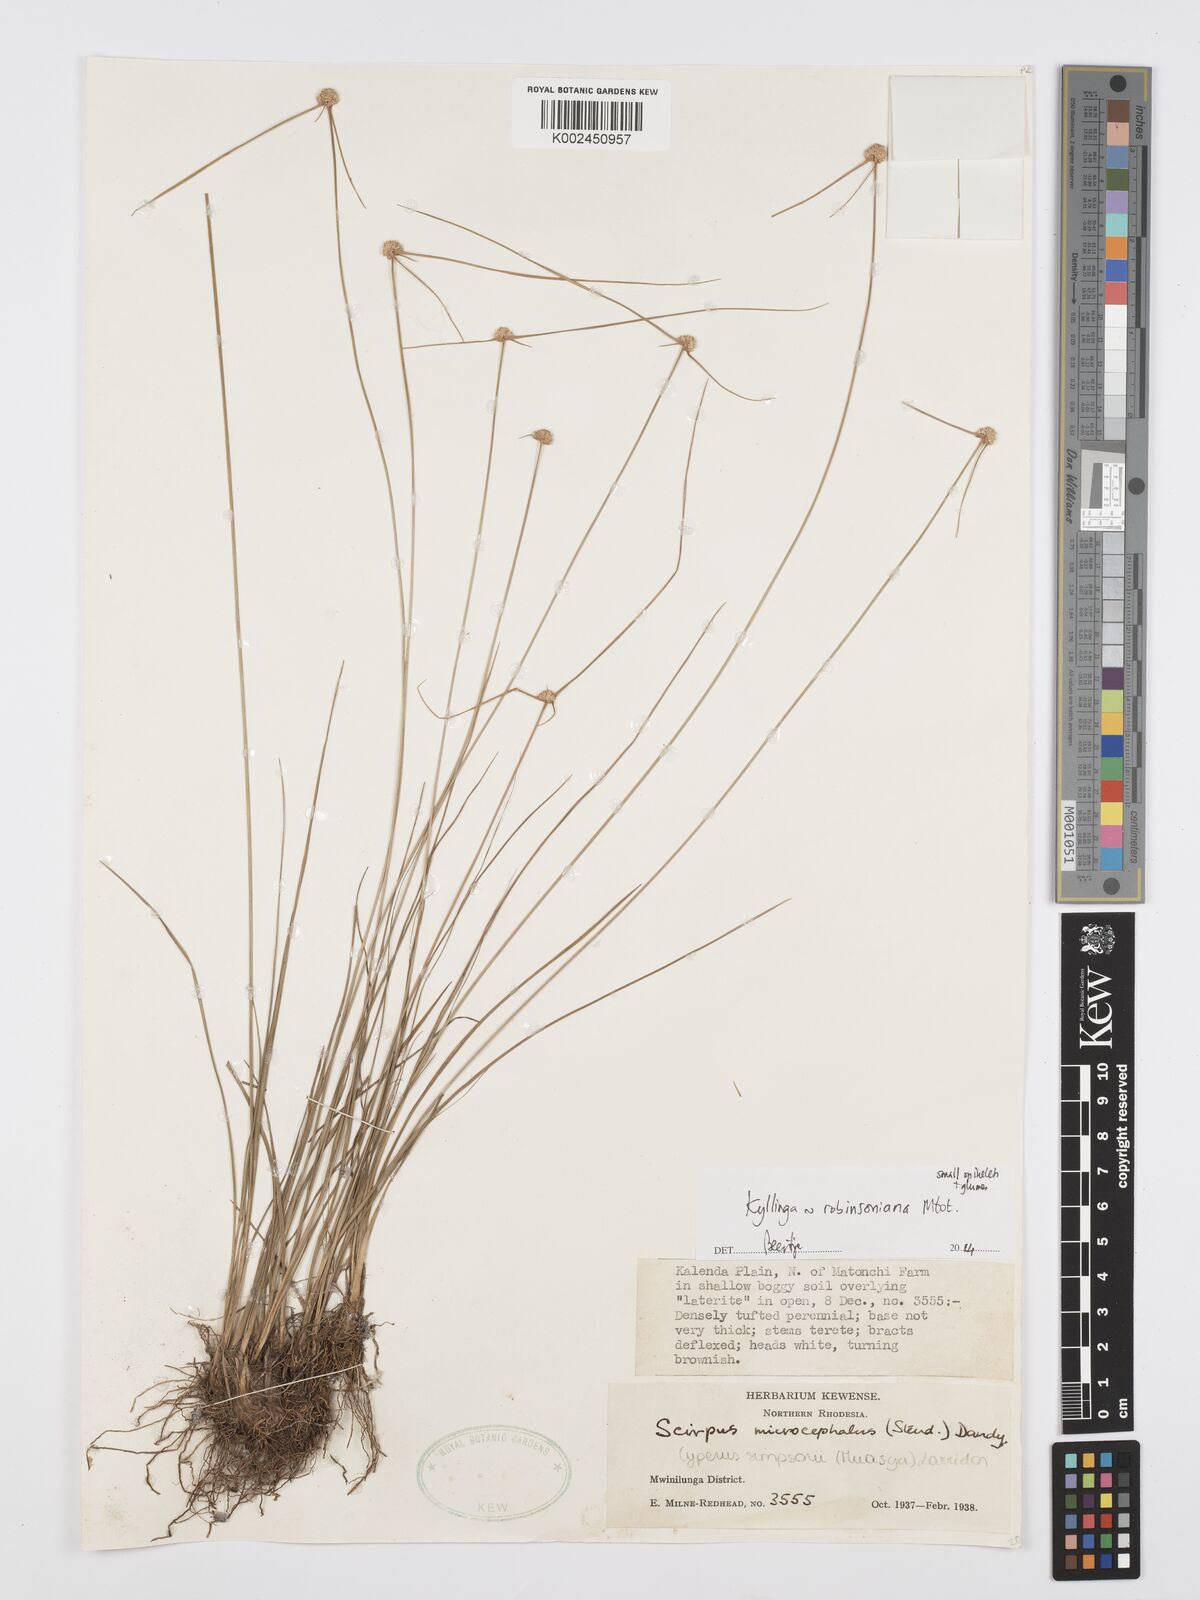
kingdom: Plantae
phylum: Tracheophyta
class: Liliopsida
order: Poales
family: Cyperaceae
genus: Cyperus
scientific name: Cyperus robinsonianus
